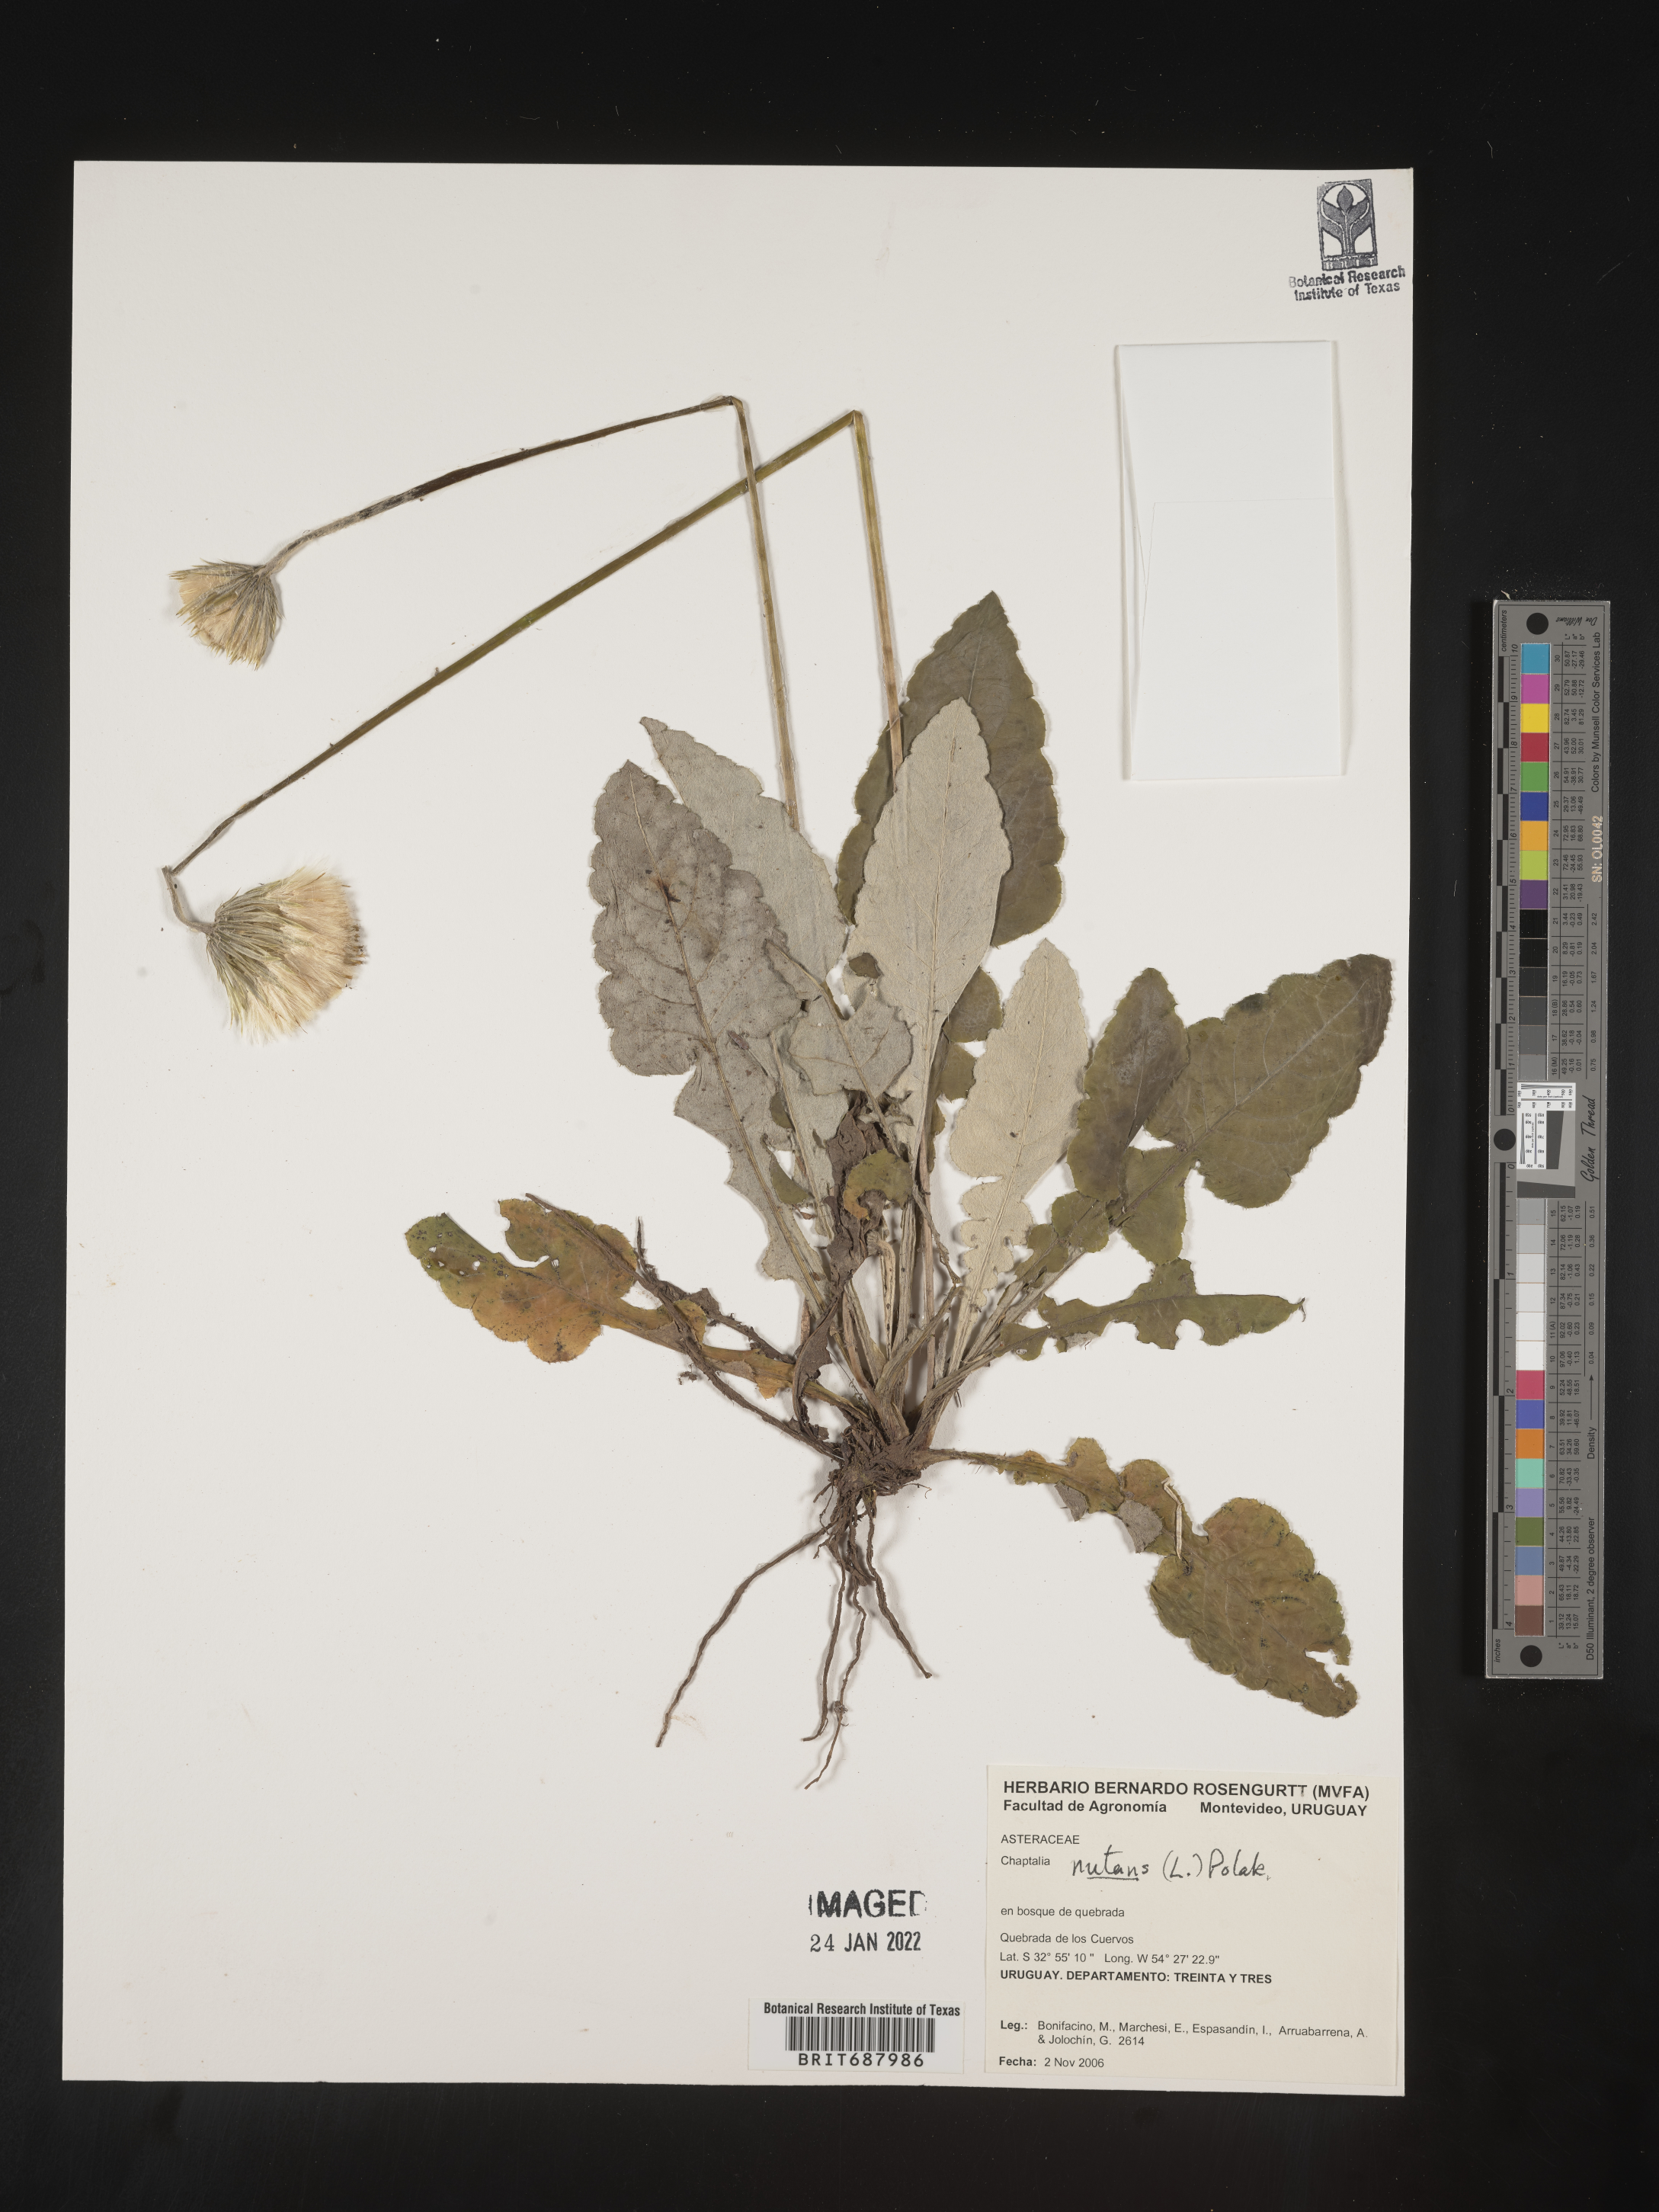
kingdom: Plantae
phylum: Tracheophyta
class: Magnoliopsida
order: Asterales
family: Asteraceae
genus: Chaptalia
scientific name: Chaptalia
